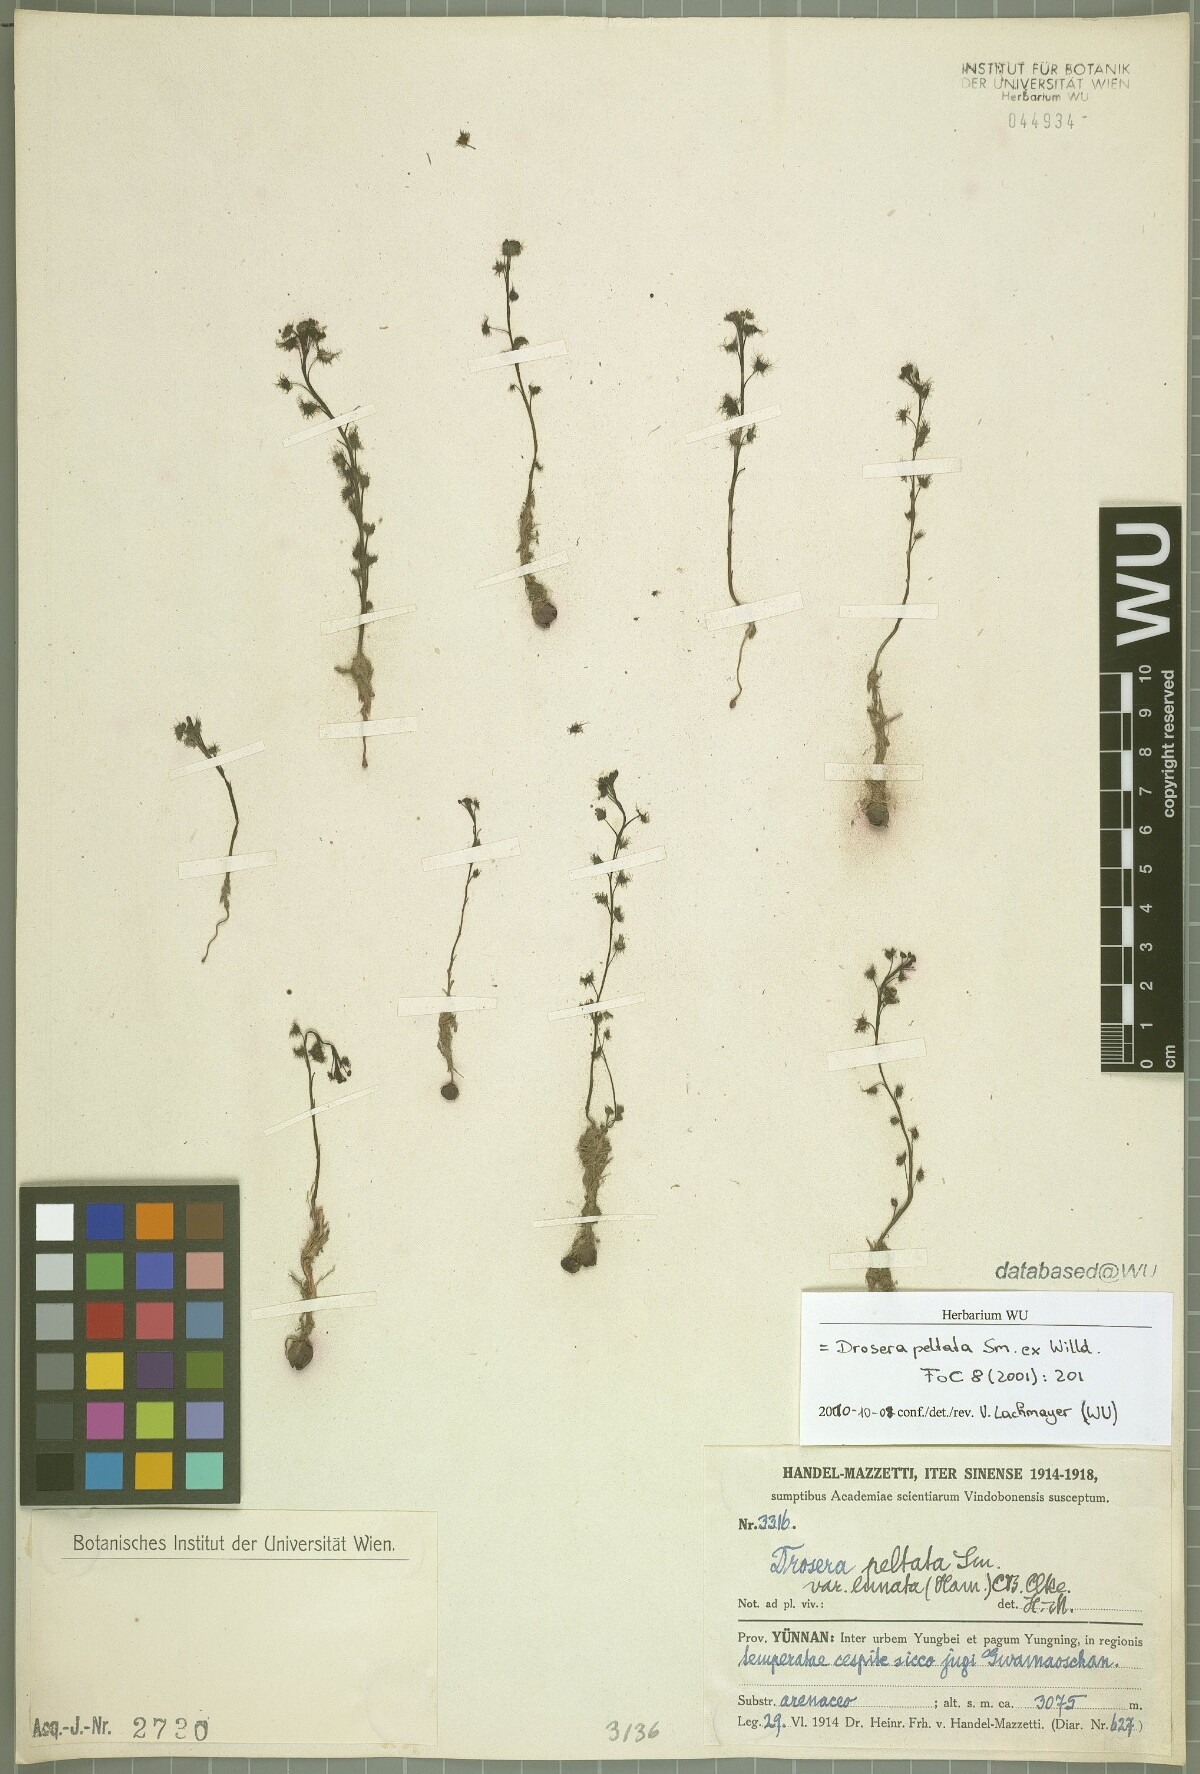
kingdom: Plantae
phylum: Tracheophyta
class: Magnoliopsida
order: Caryophyllales
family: Droseraceae
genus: Drosera
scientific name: Drosera peltata
